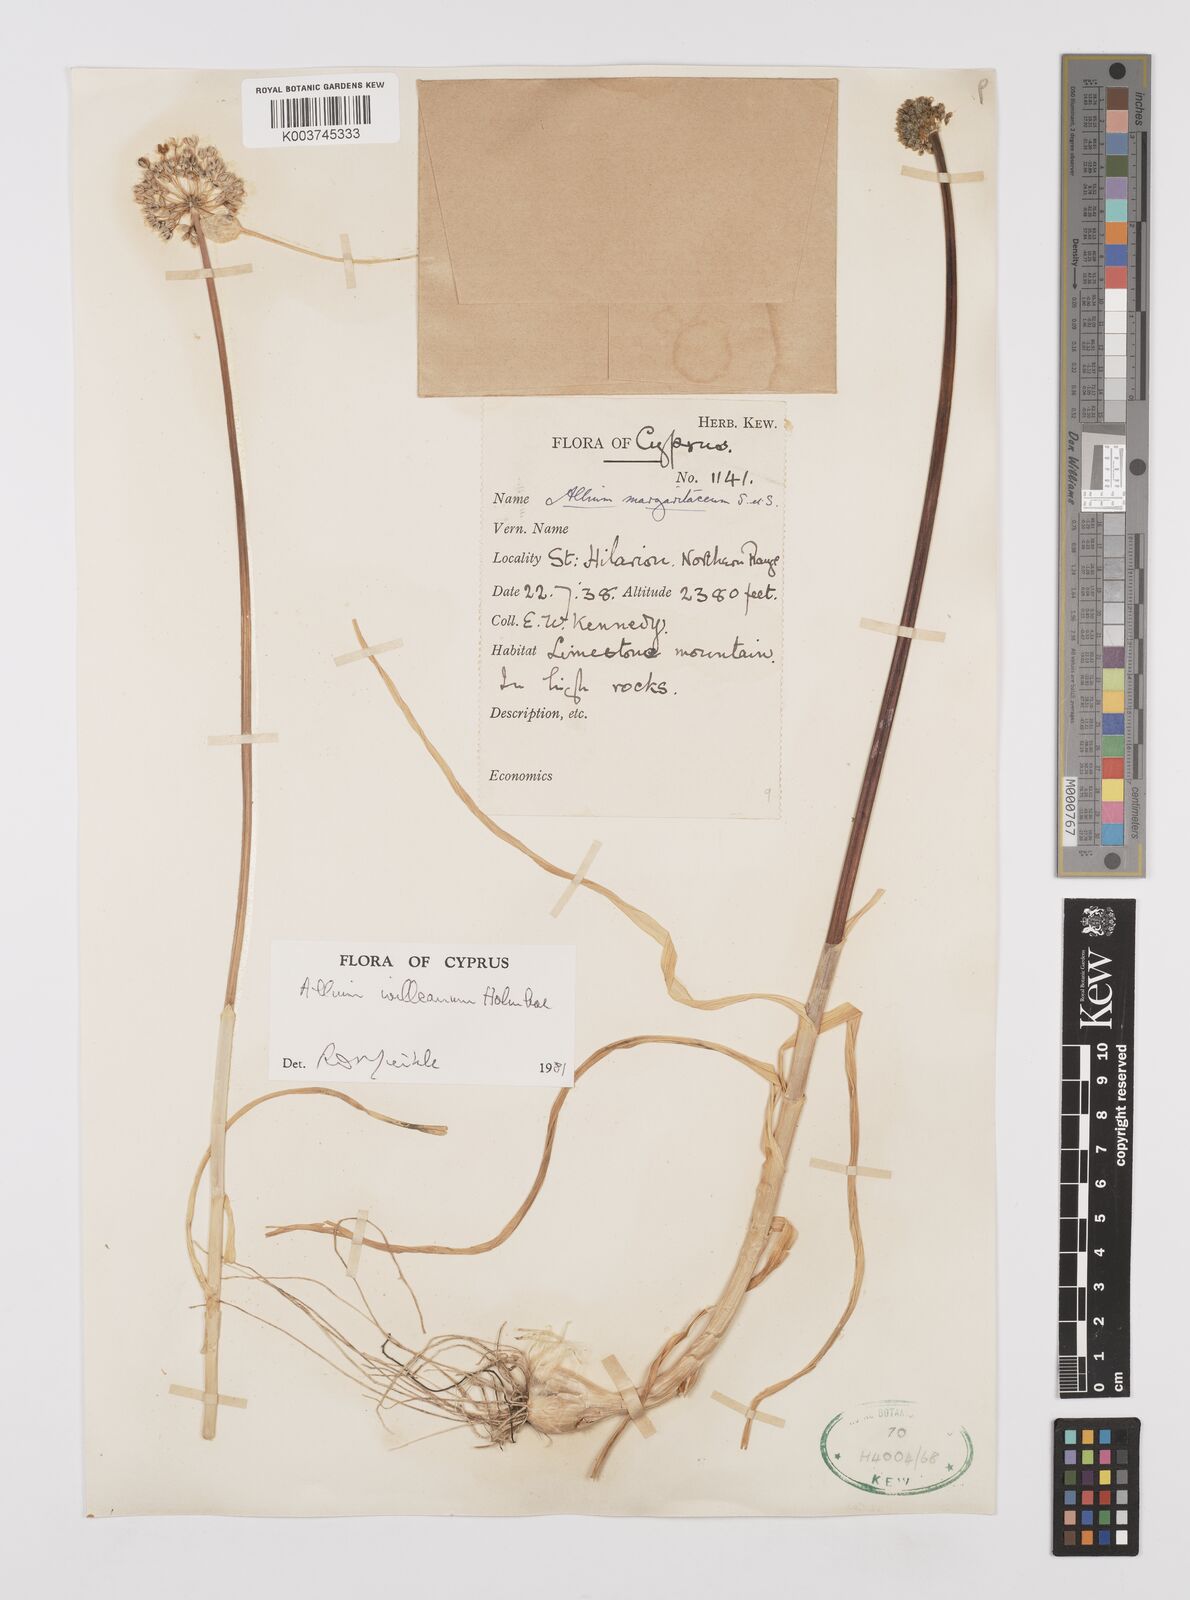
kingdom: Plantae
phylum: Tracheophyta
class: Liliopsida
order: Asparagales
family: Amaryllidaceae
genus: Allium
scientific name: Allium willeanum
